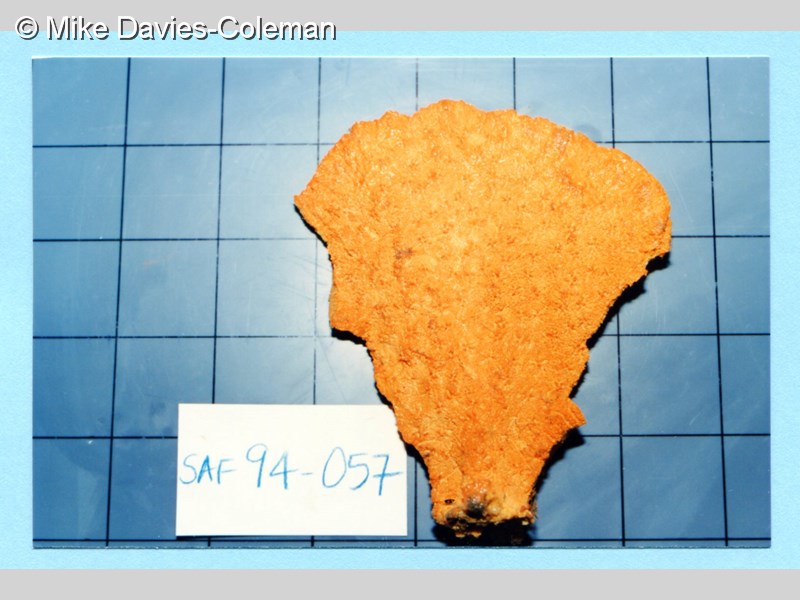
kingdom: Animalia
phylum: Porifera
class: Demospongiae
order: Poecilosclerida
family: Isodictyidae
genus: Isodictya
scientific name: Isodictya grandis
